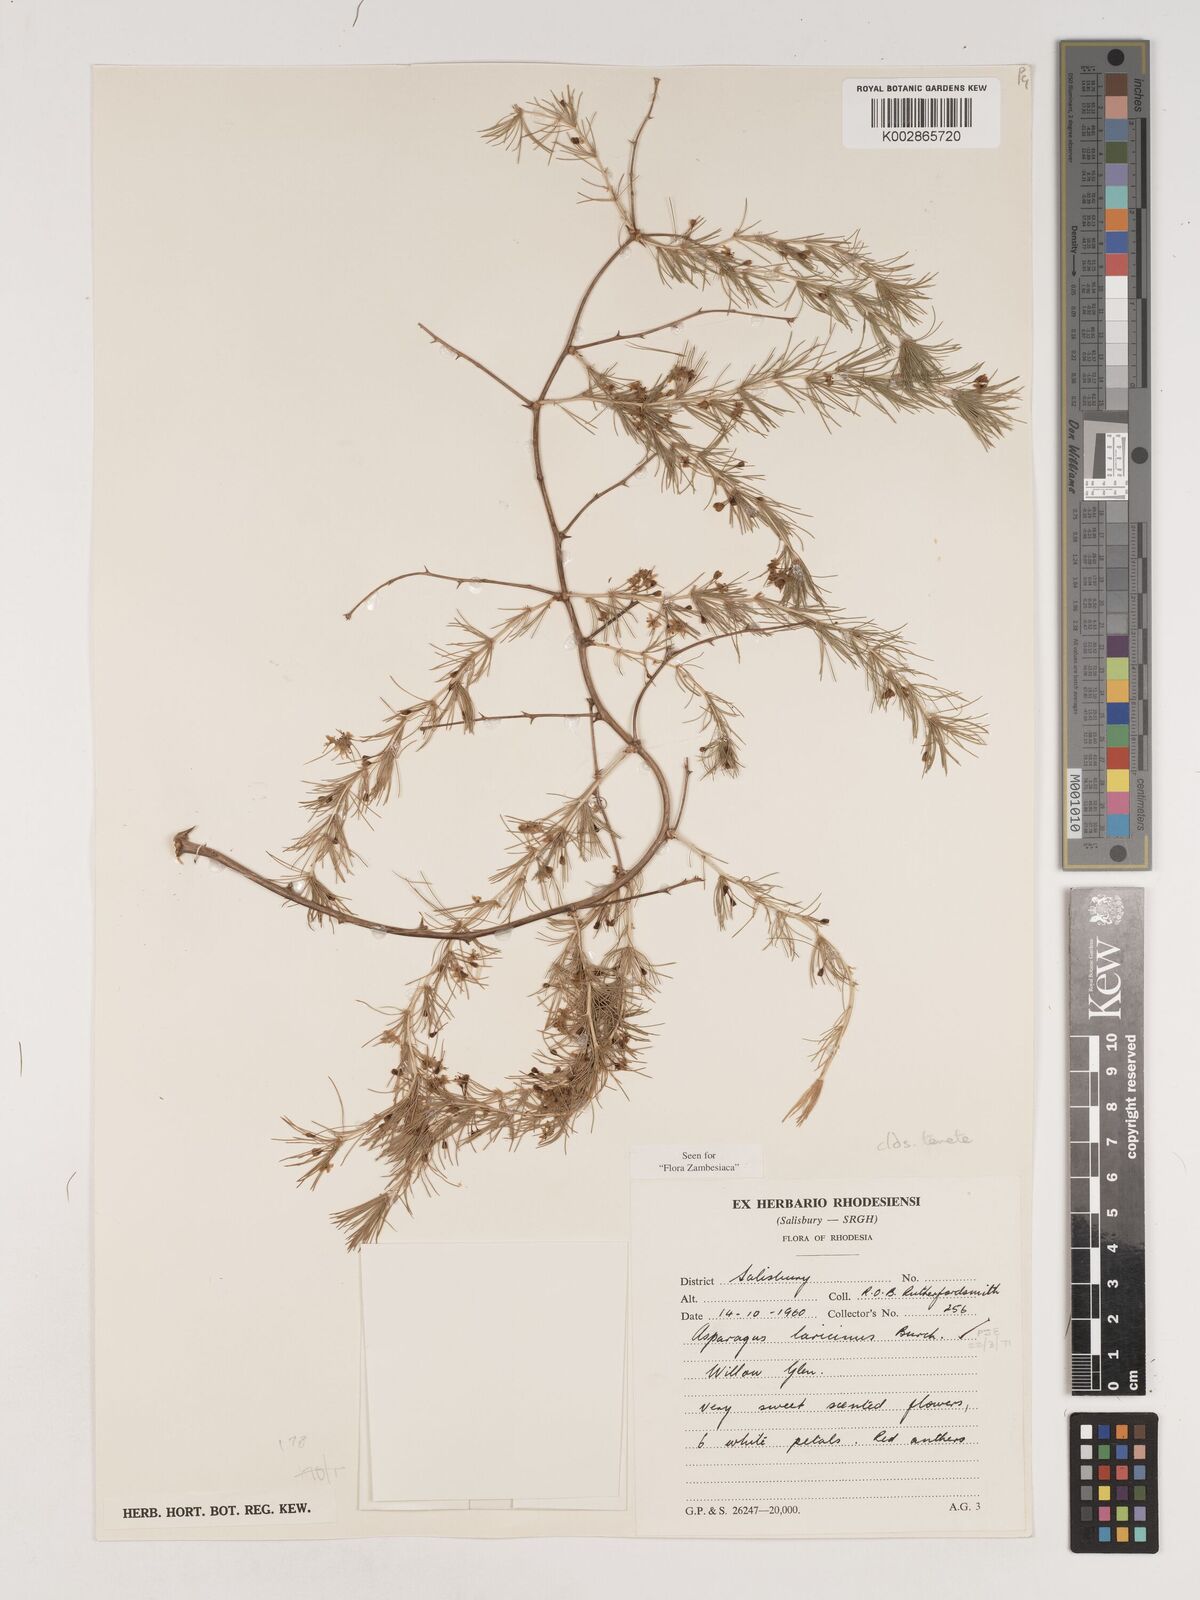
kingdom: Plantae
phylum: Tracheophyta
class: Liliopsida
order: Asparagales
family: Asparagaceae
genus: Asparagus
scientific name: Asparagus laricinus
